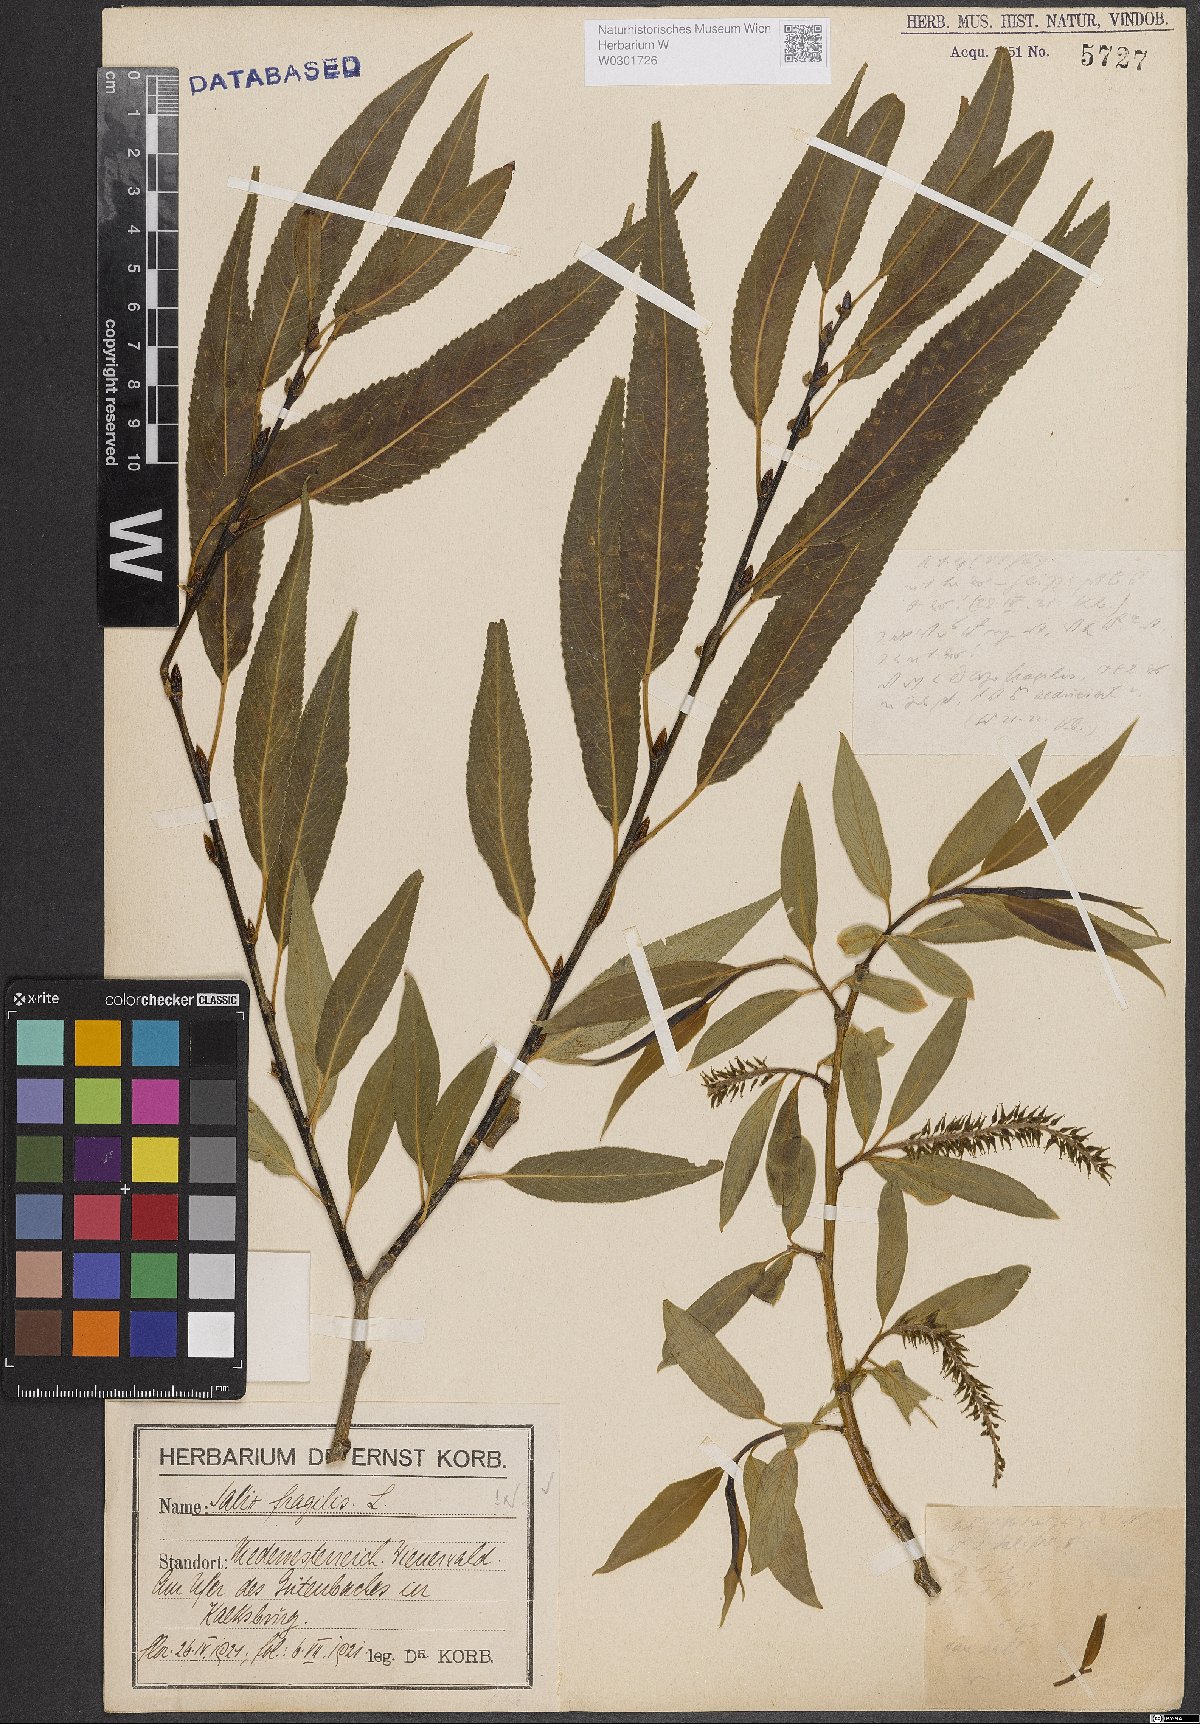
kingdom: Plantae
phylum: Tracheophyta
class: Magnoliopsida
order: Malpighiales
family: Salicaceae
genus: Salix
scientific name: Salix fragilis
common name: Crack willow
